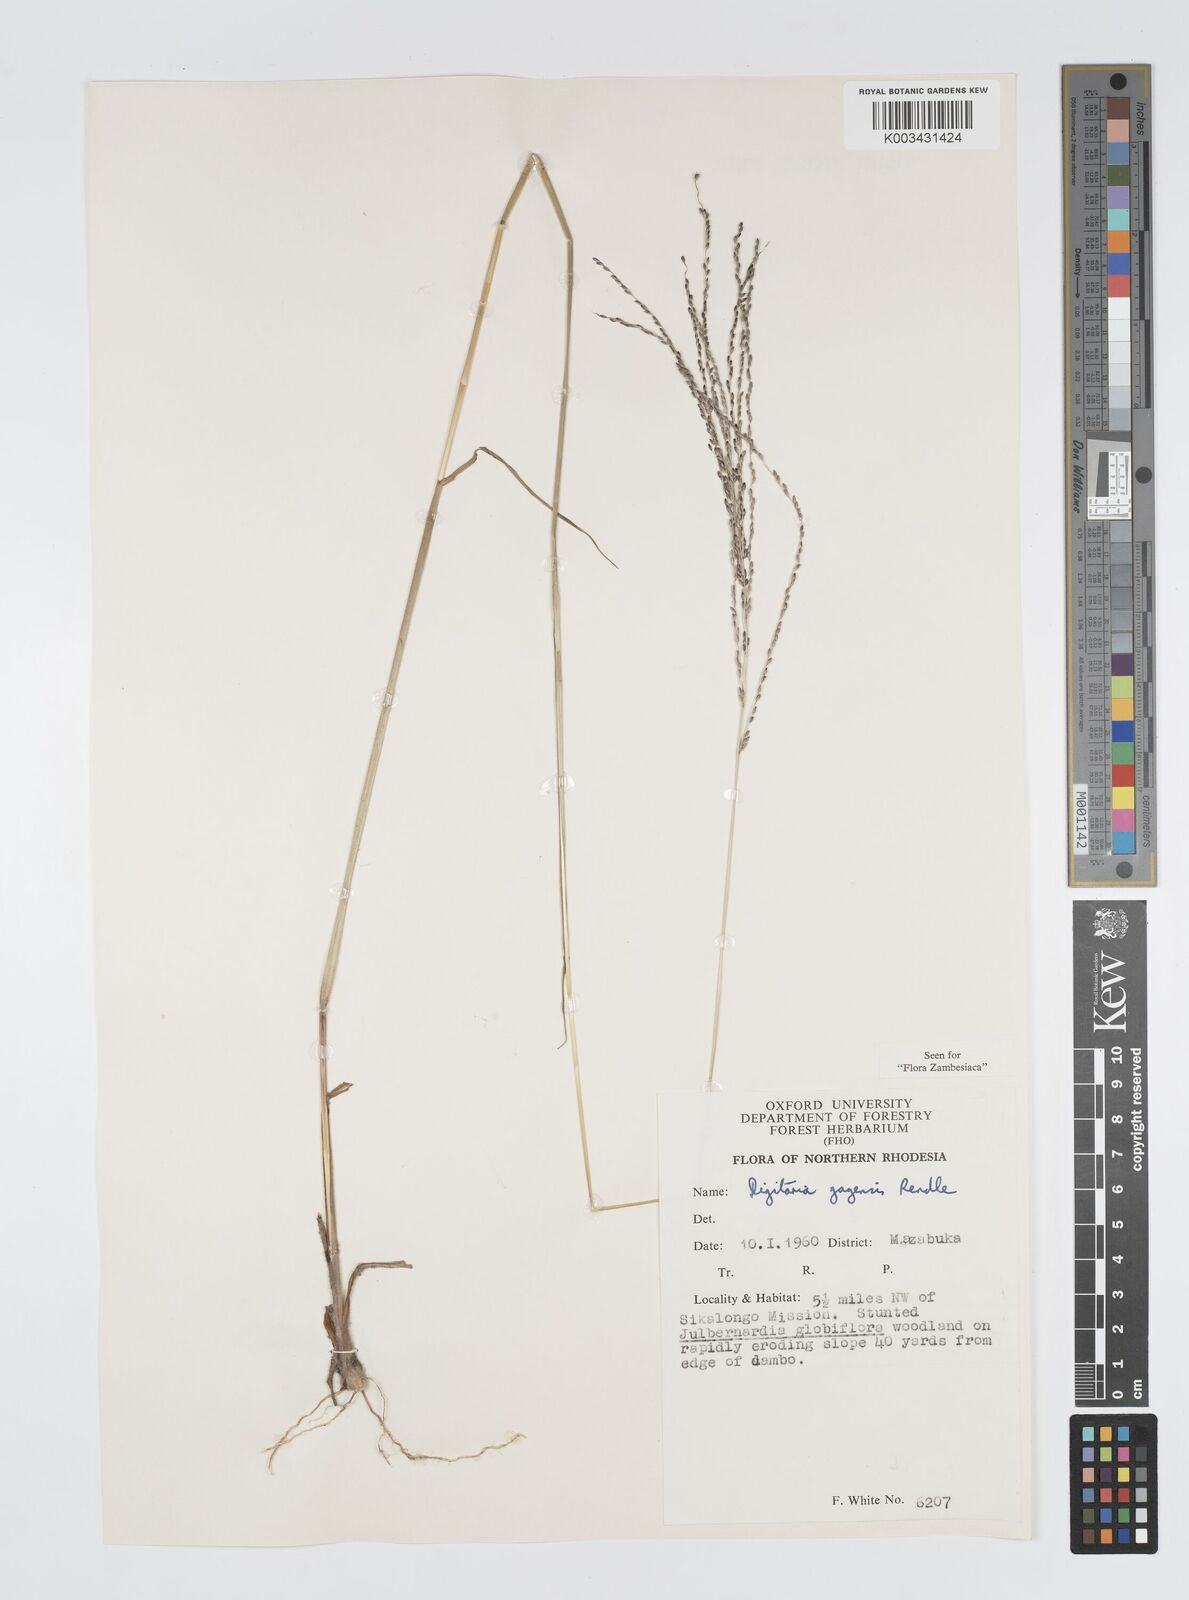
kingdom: Plantae
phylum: Tracheophyta
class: Liliopsida
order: Poales
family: Poaceae
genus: Digitaria
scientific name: Digitaria gazensis
